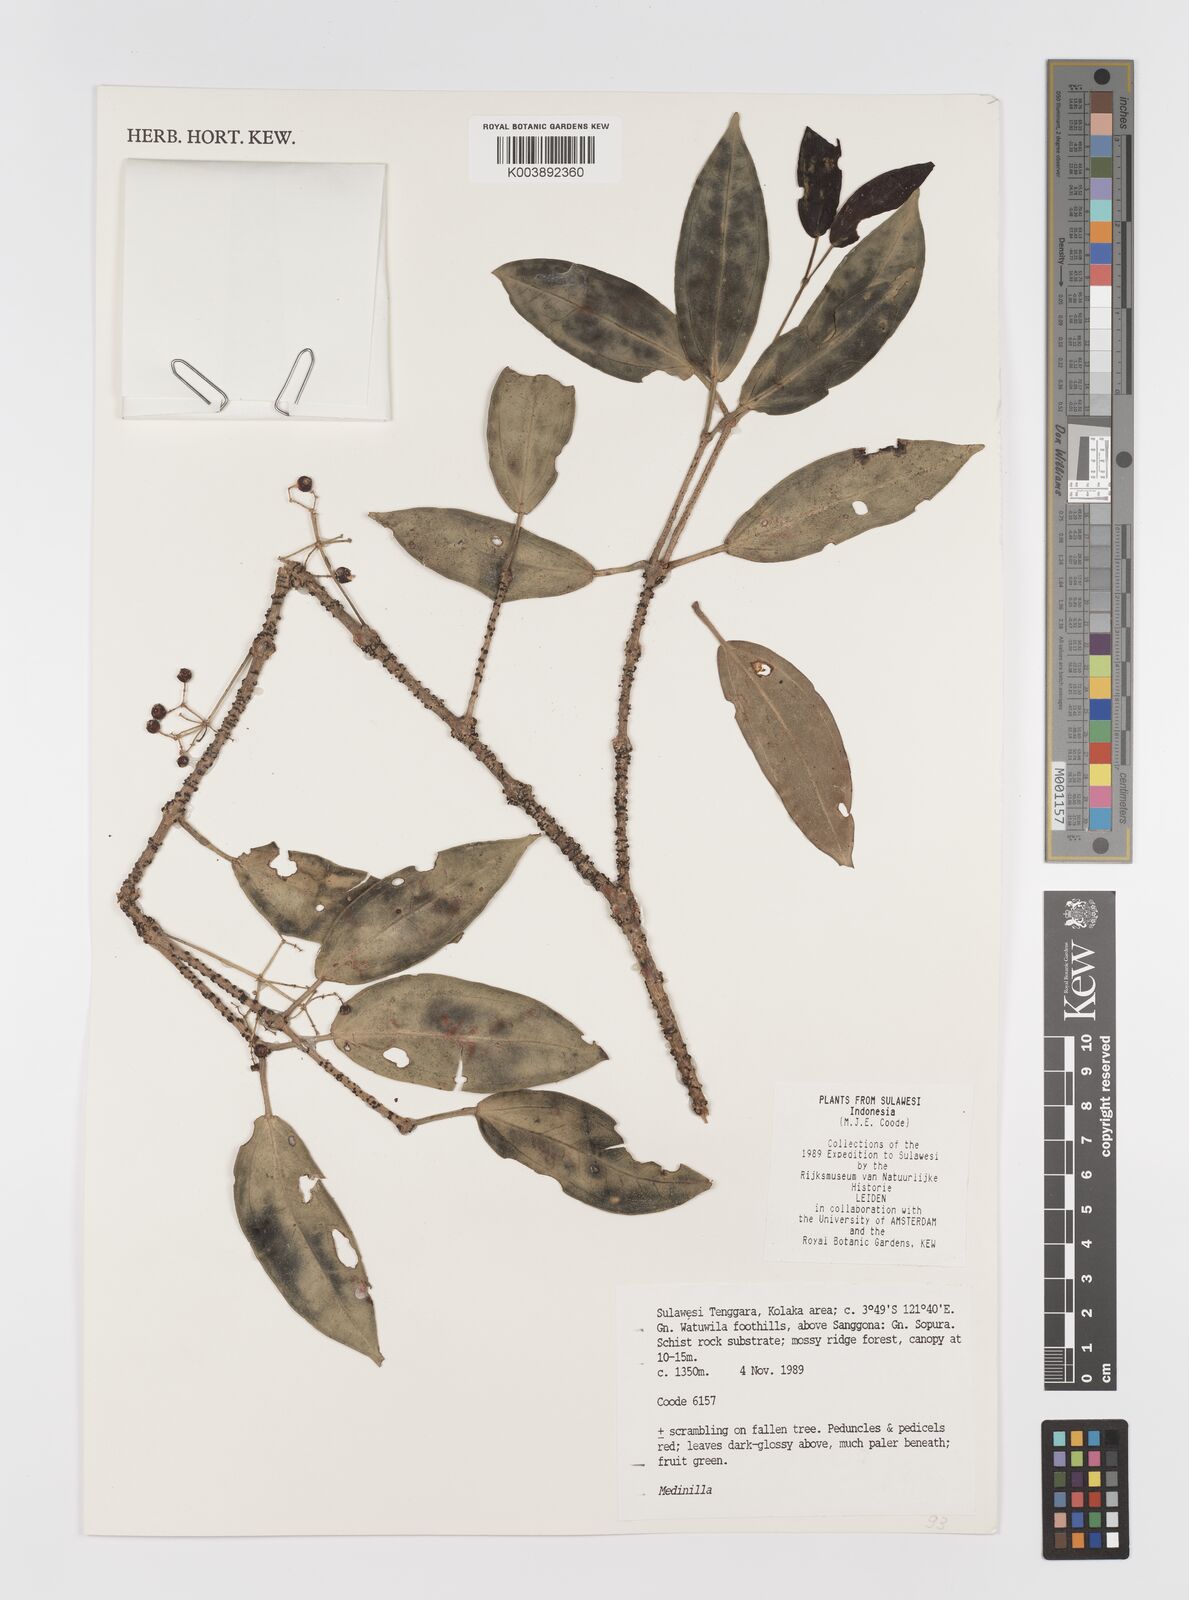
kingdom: Plantae
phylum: Tracheophyta
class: Magnoliopsida
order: Myrtales
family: Melastomataceae
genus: Medinilla
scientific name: Medinilla
